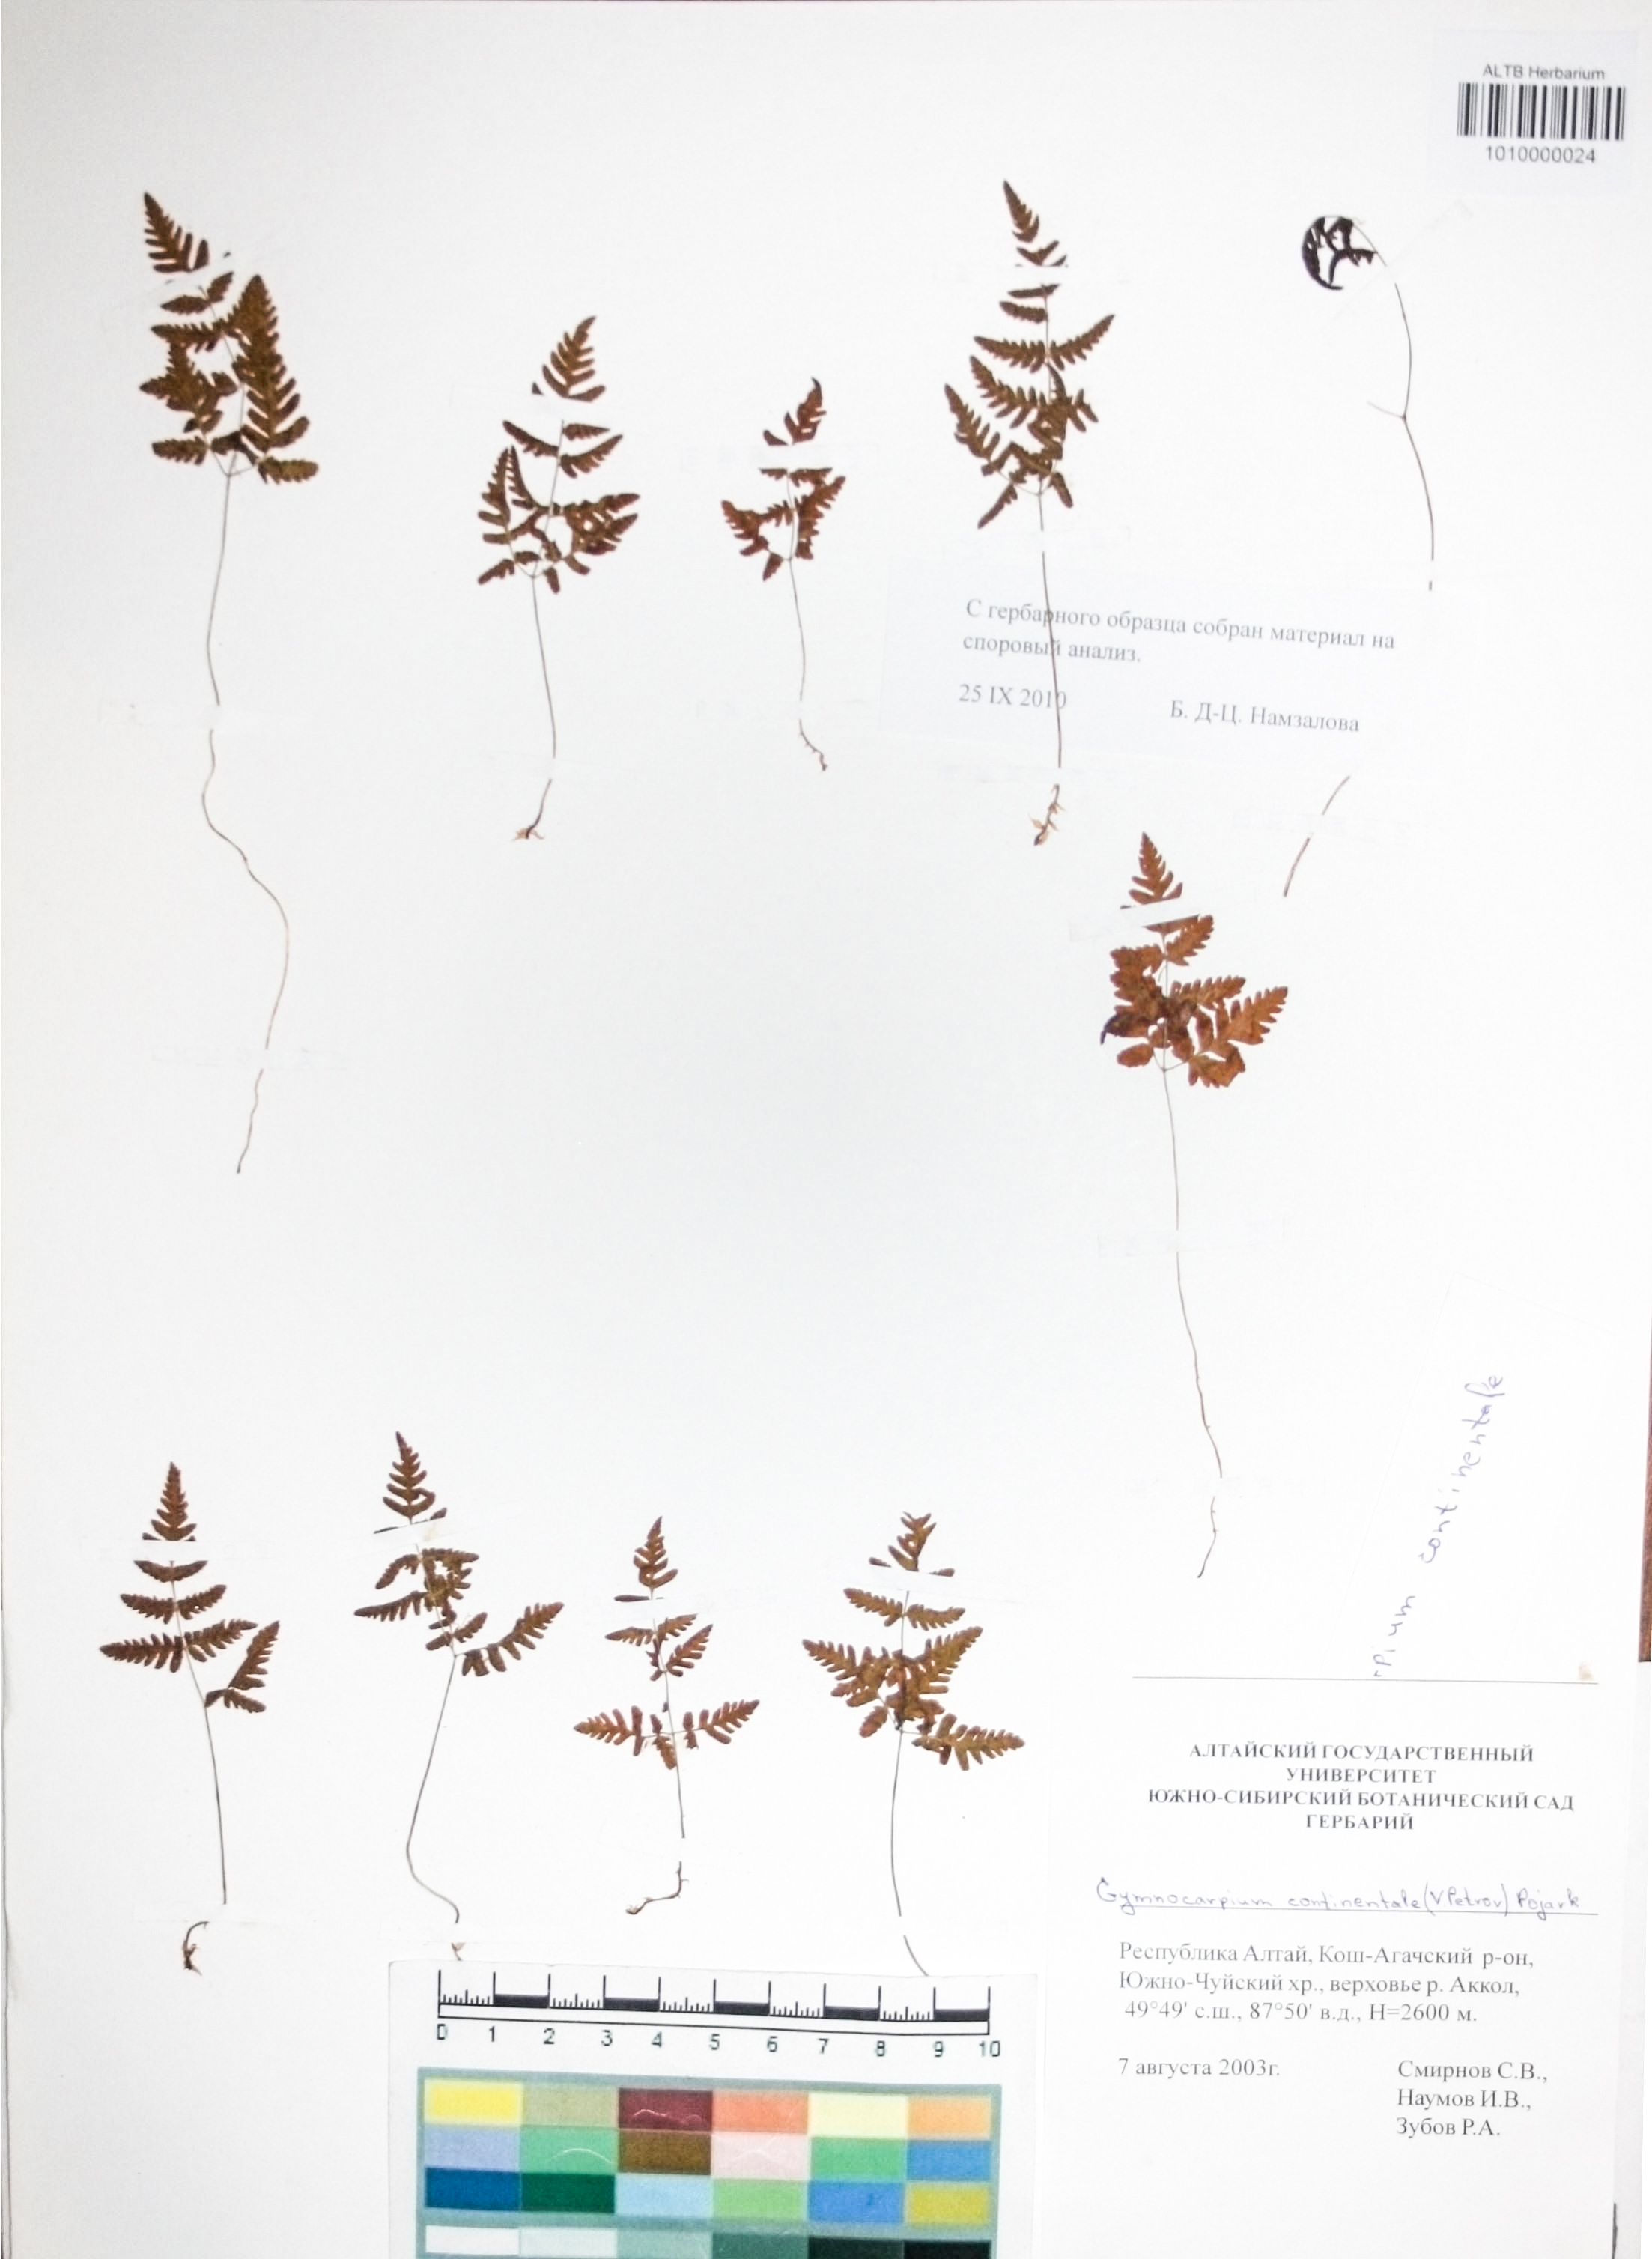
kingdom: Plantae
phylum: Tracheophyta
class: Polypodiopsida
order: Polypodiales
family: Cystopteridaceae
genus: Gymnocarpium
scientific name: Gymnocarpium continentale
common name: Asian oak fern
